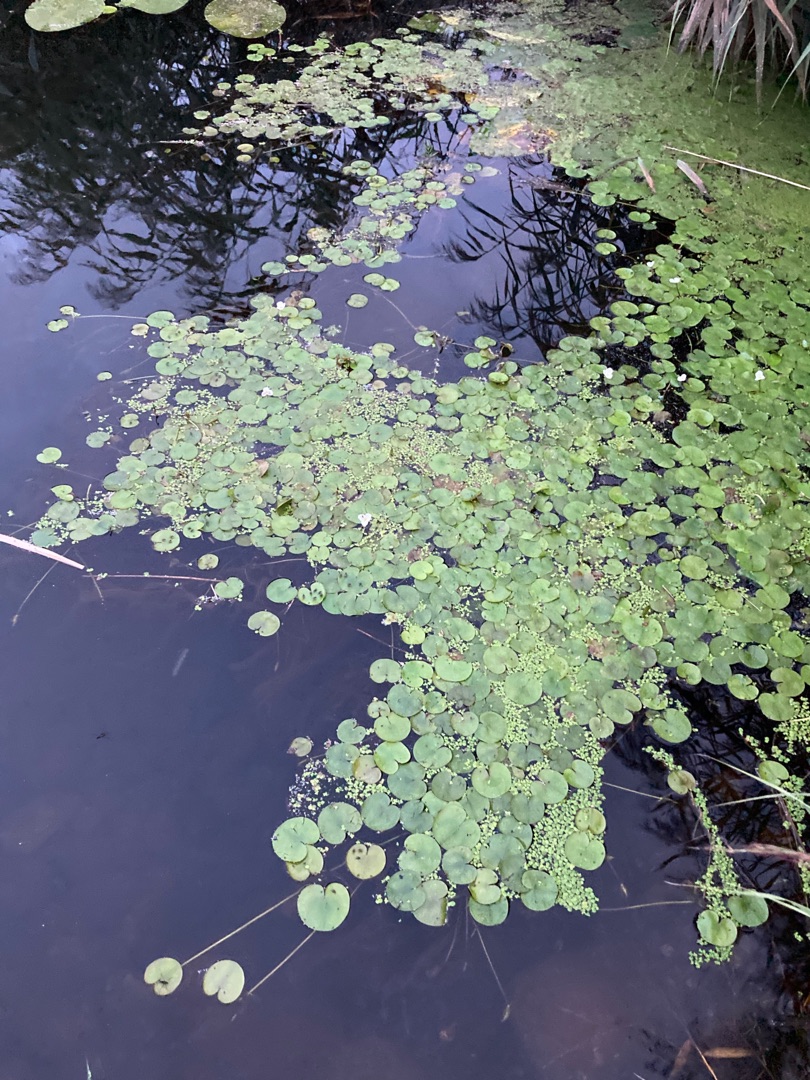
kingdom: Plantae
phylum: Tracheophyta
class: Liliopsida
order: Alismatales
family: Hydrocharitaceae
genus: Hydrocharis
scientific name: Hydrocharis morsus-ranae
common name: Frøbid
